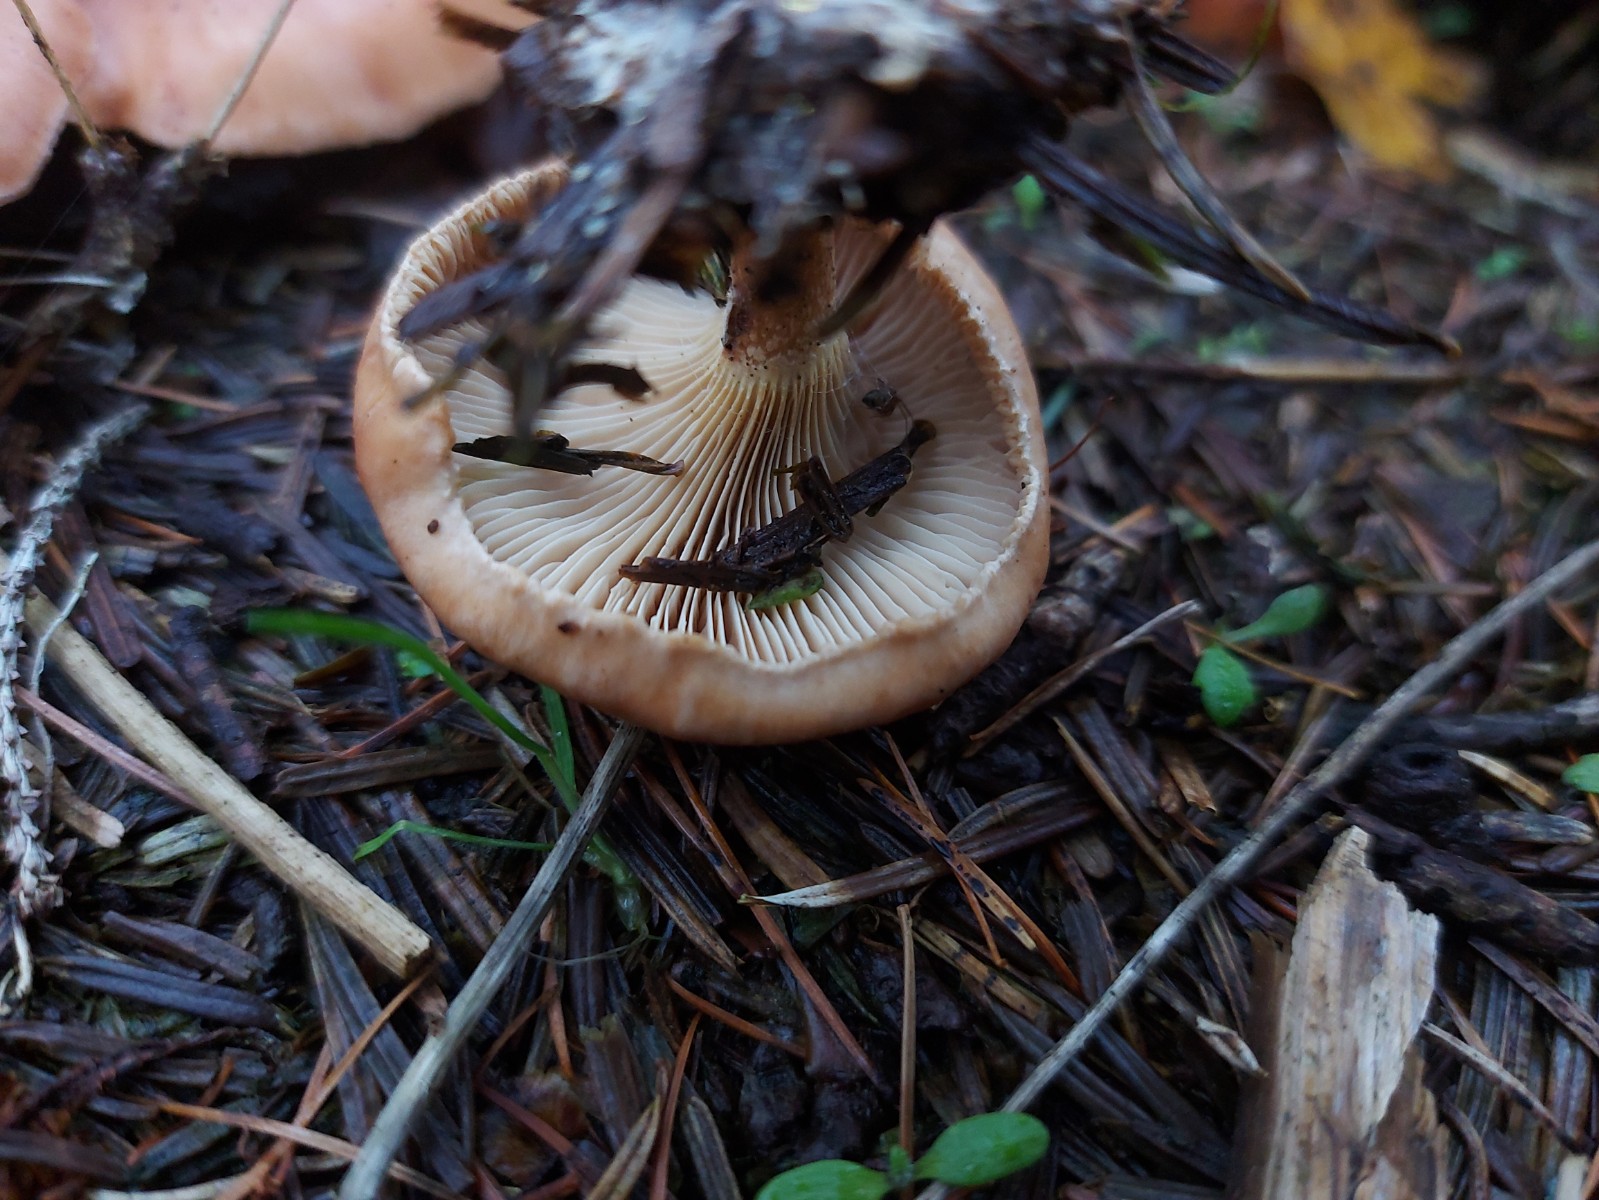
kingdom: Fungi
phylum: Basidiomycota
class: Agaricomycetes
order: Agaricales
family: Tricholomataceae
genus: Paralepista
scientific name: Paralepista flaccida
